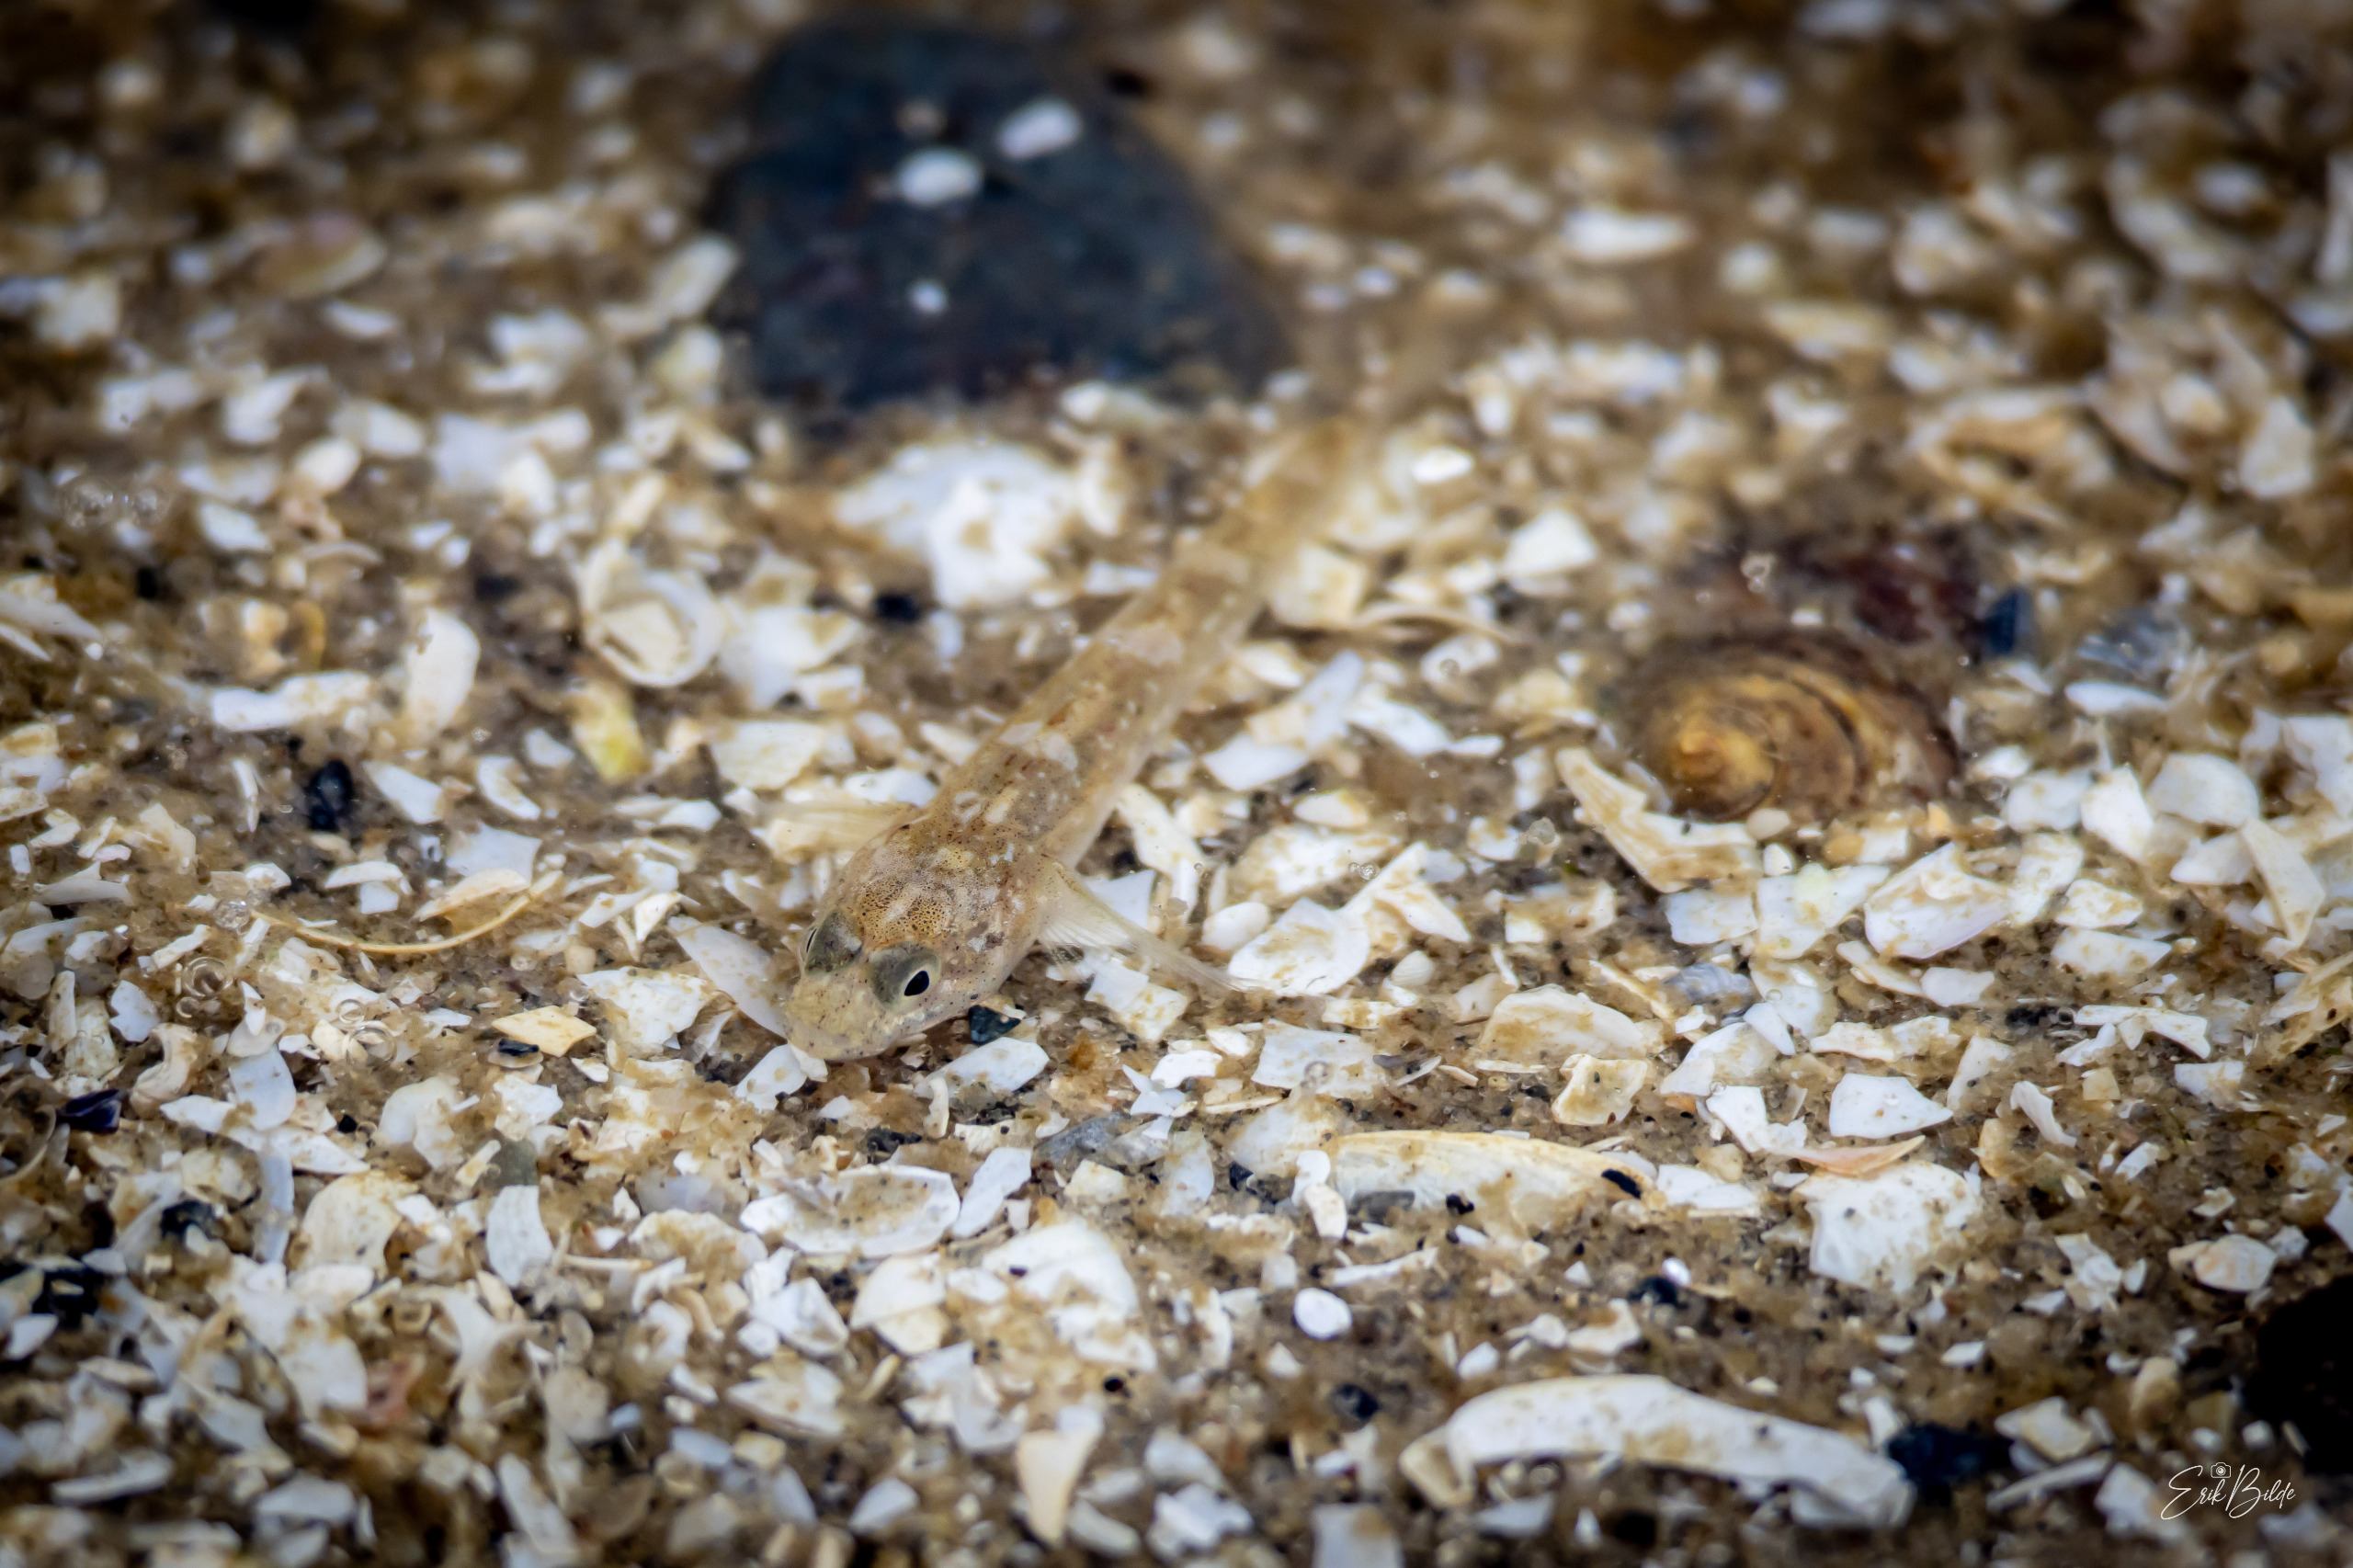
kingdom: Animalia
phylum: Chordata
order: Perciformes
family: Gobiidae
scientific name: Gobiidae
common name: Kutlingefamilien
